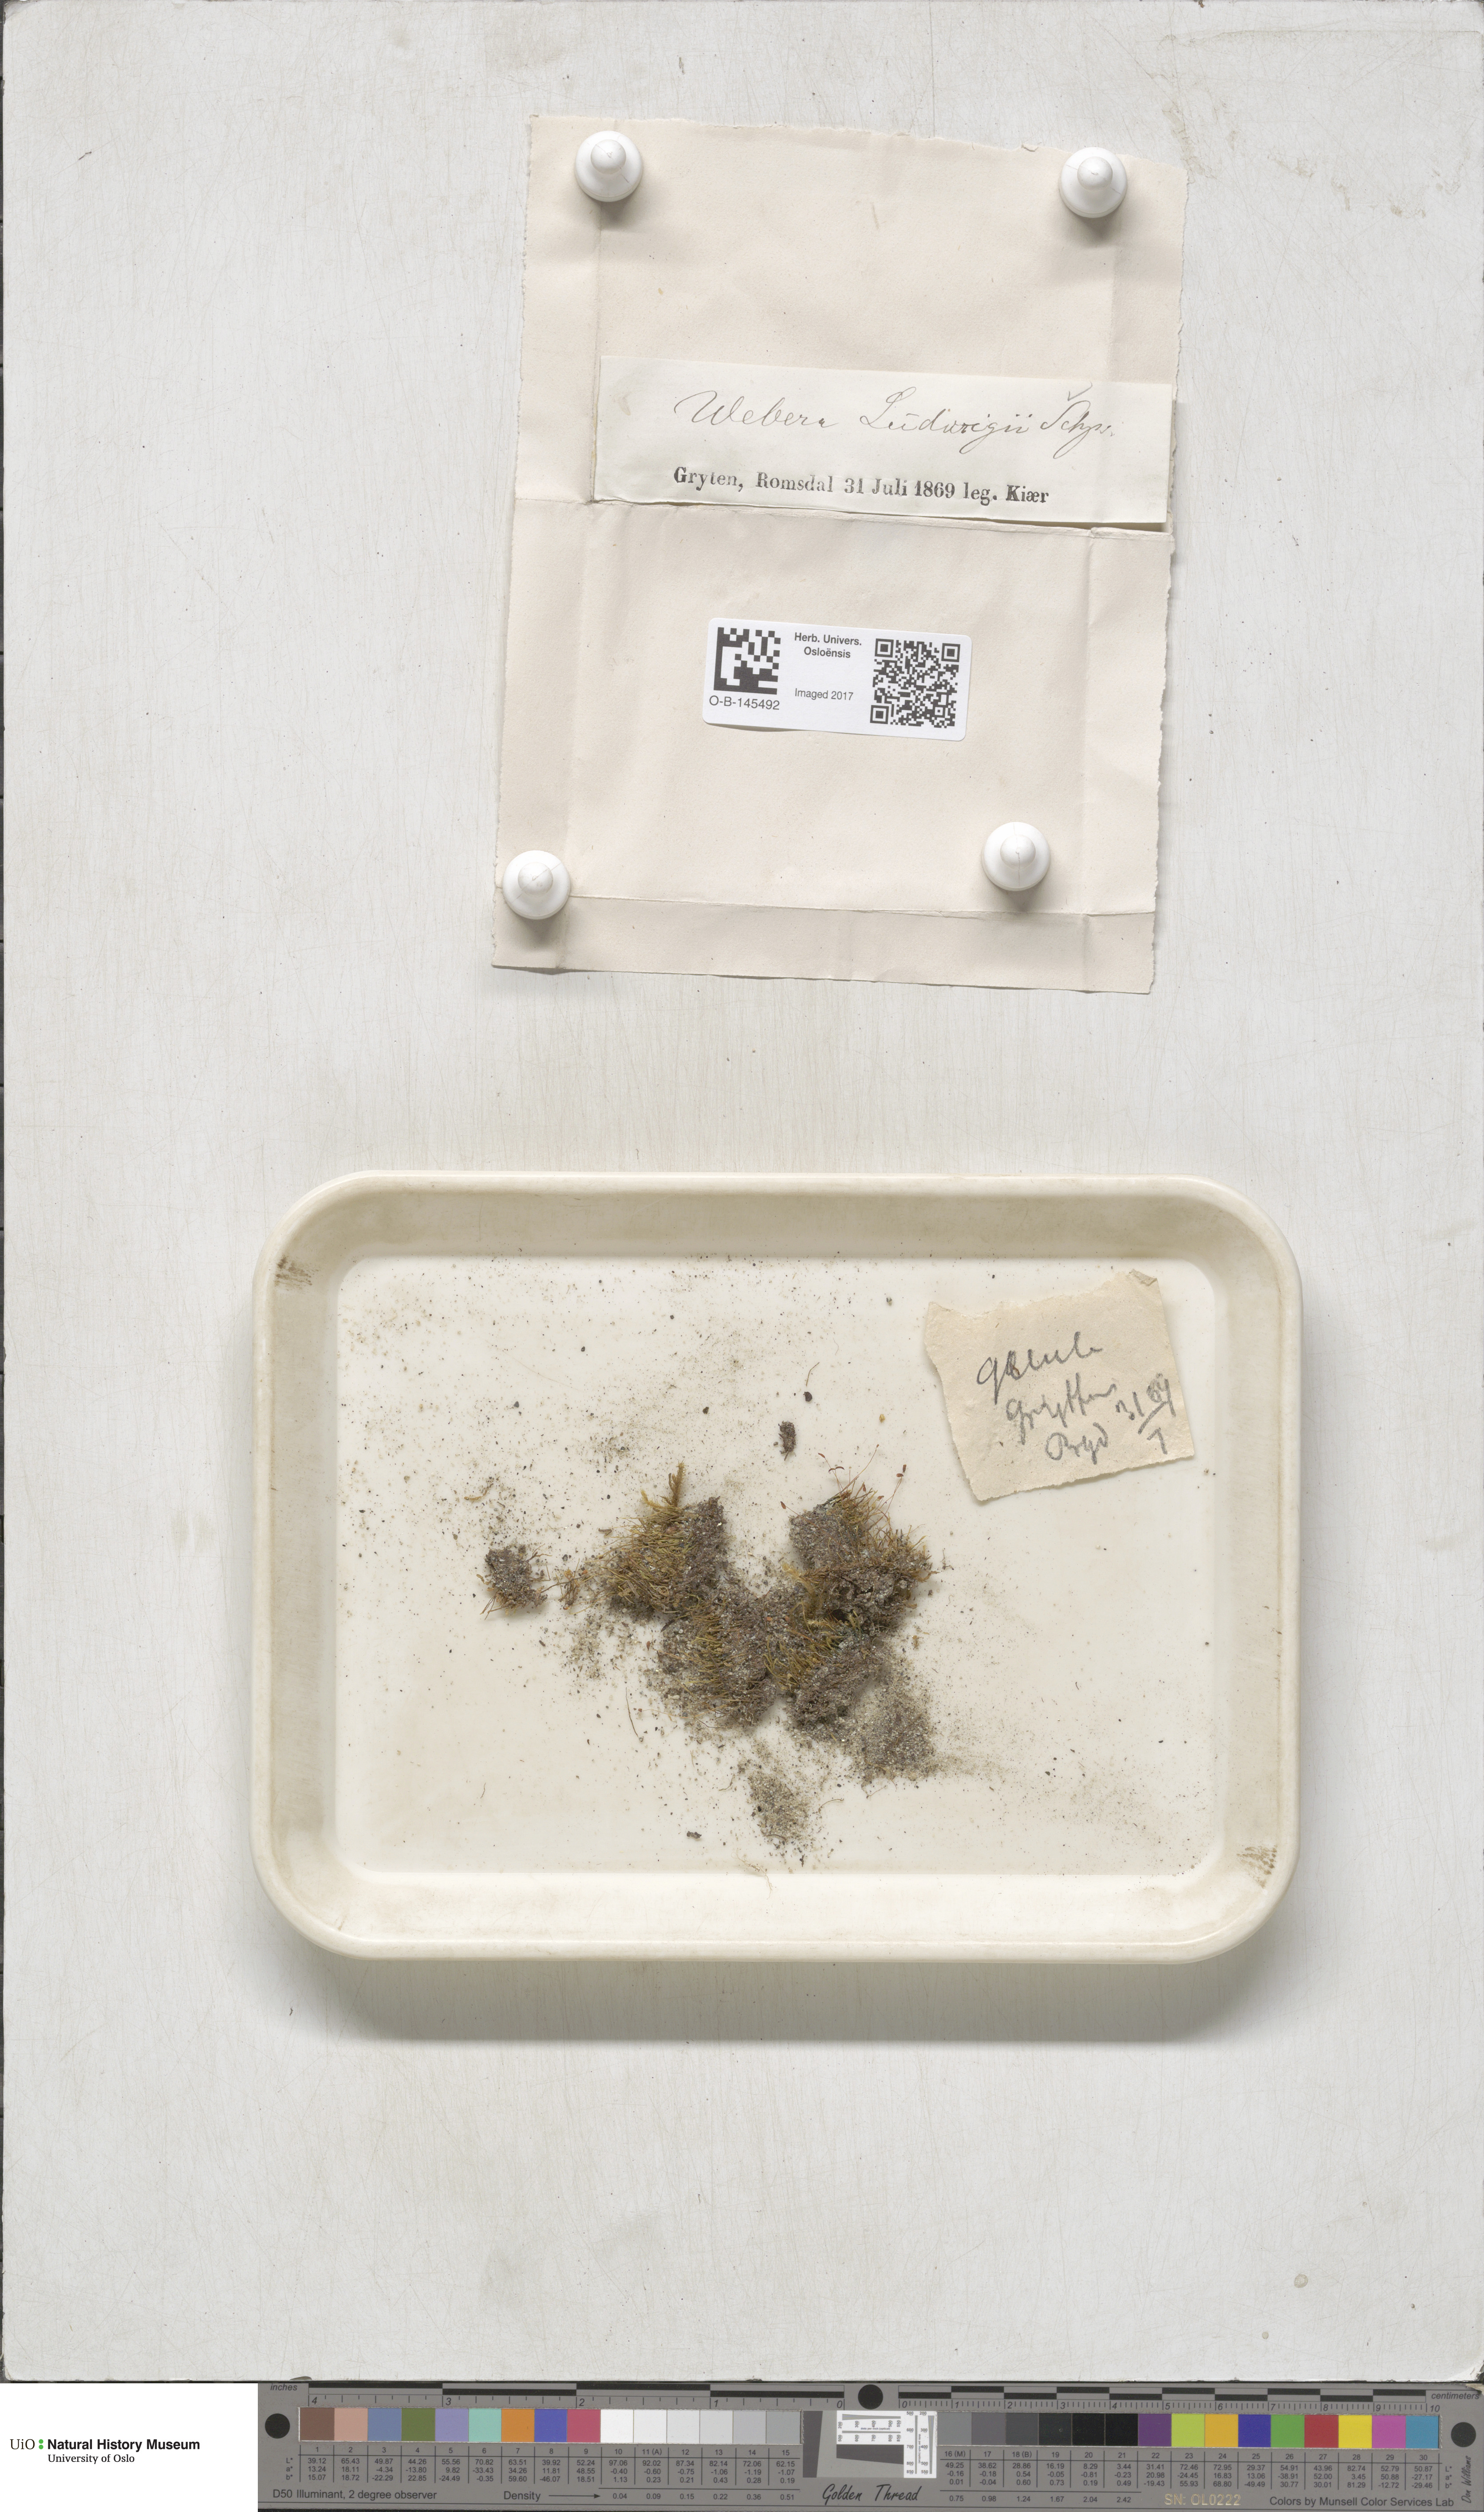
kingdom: Plantae
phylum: Bryophyta
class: Bryopsida
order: Bryales
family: Mniaceae
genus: Pohlia
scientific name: Pohlia ludwigii
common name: Ludwig's thread-moss
